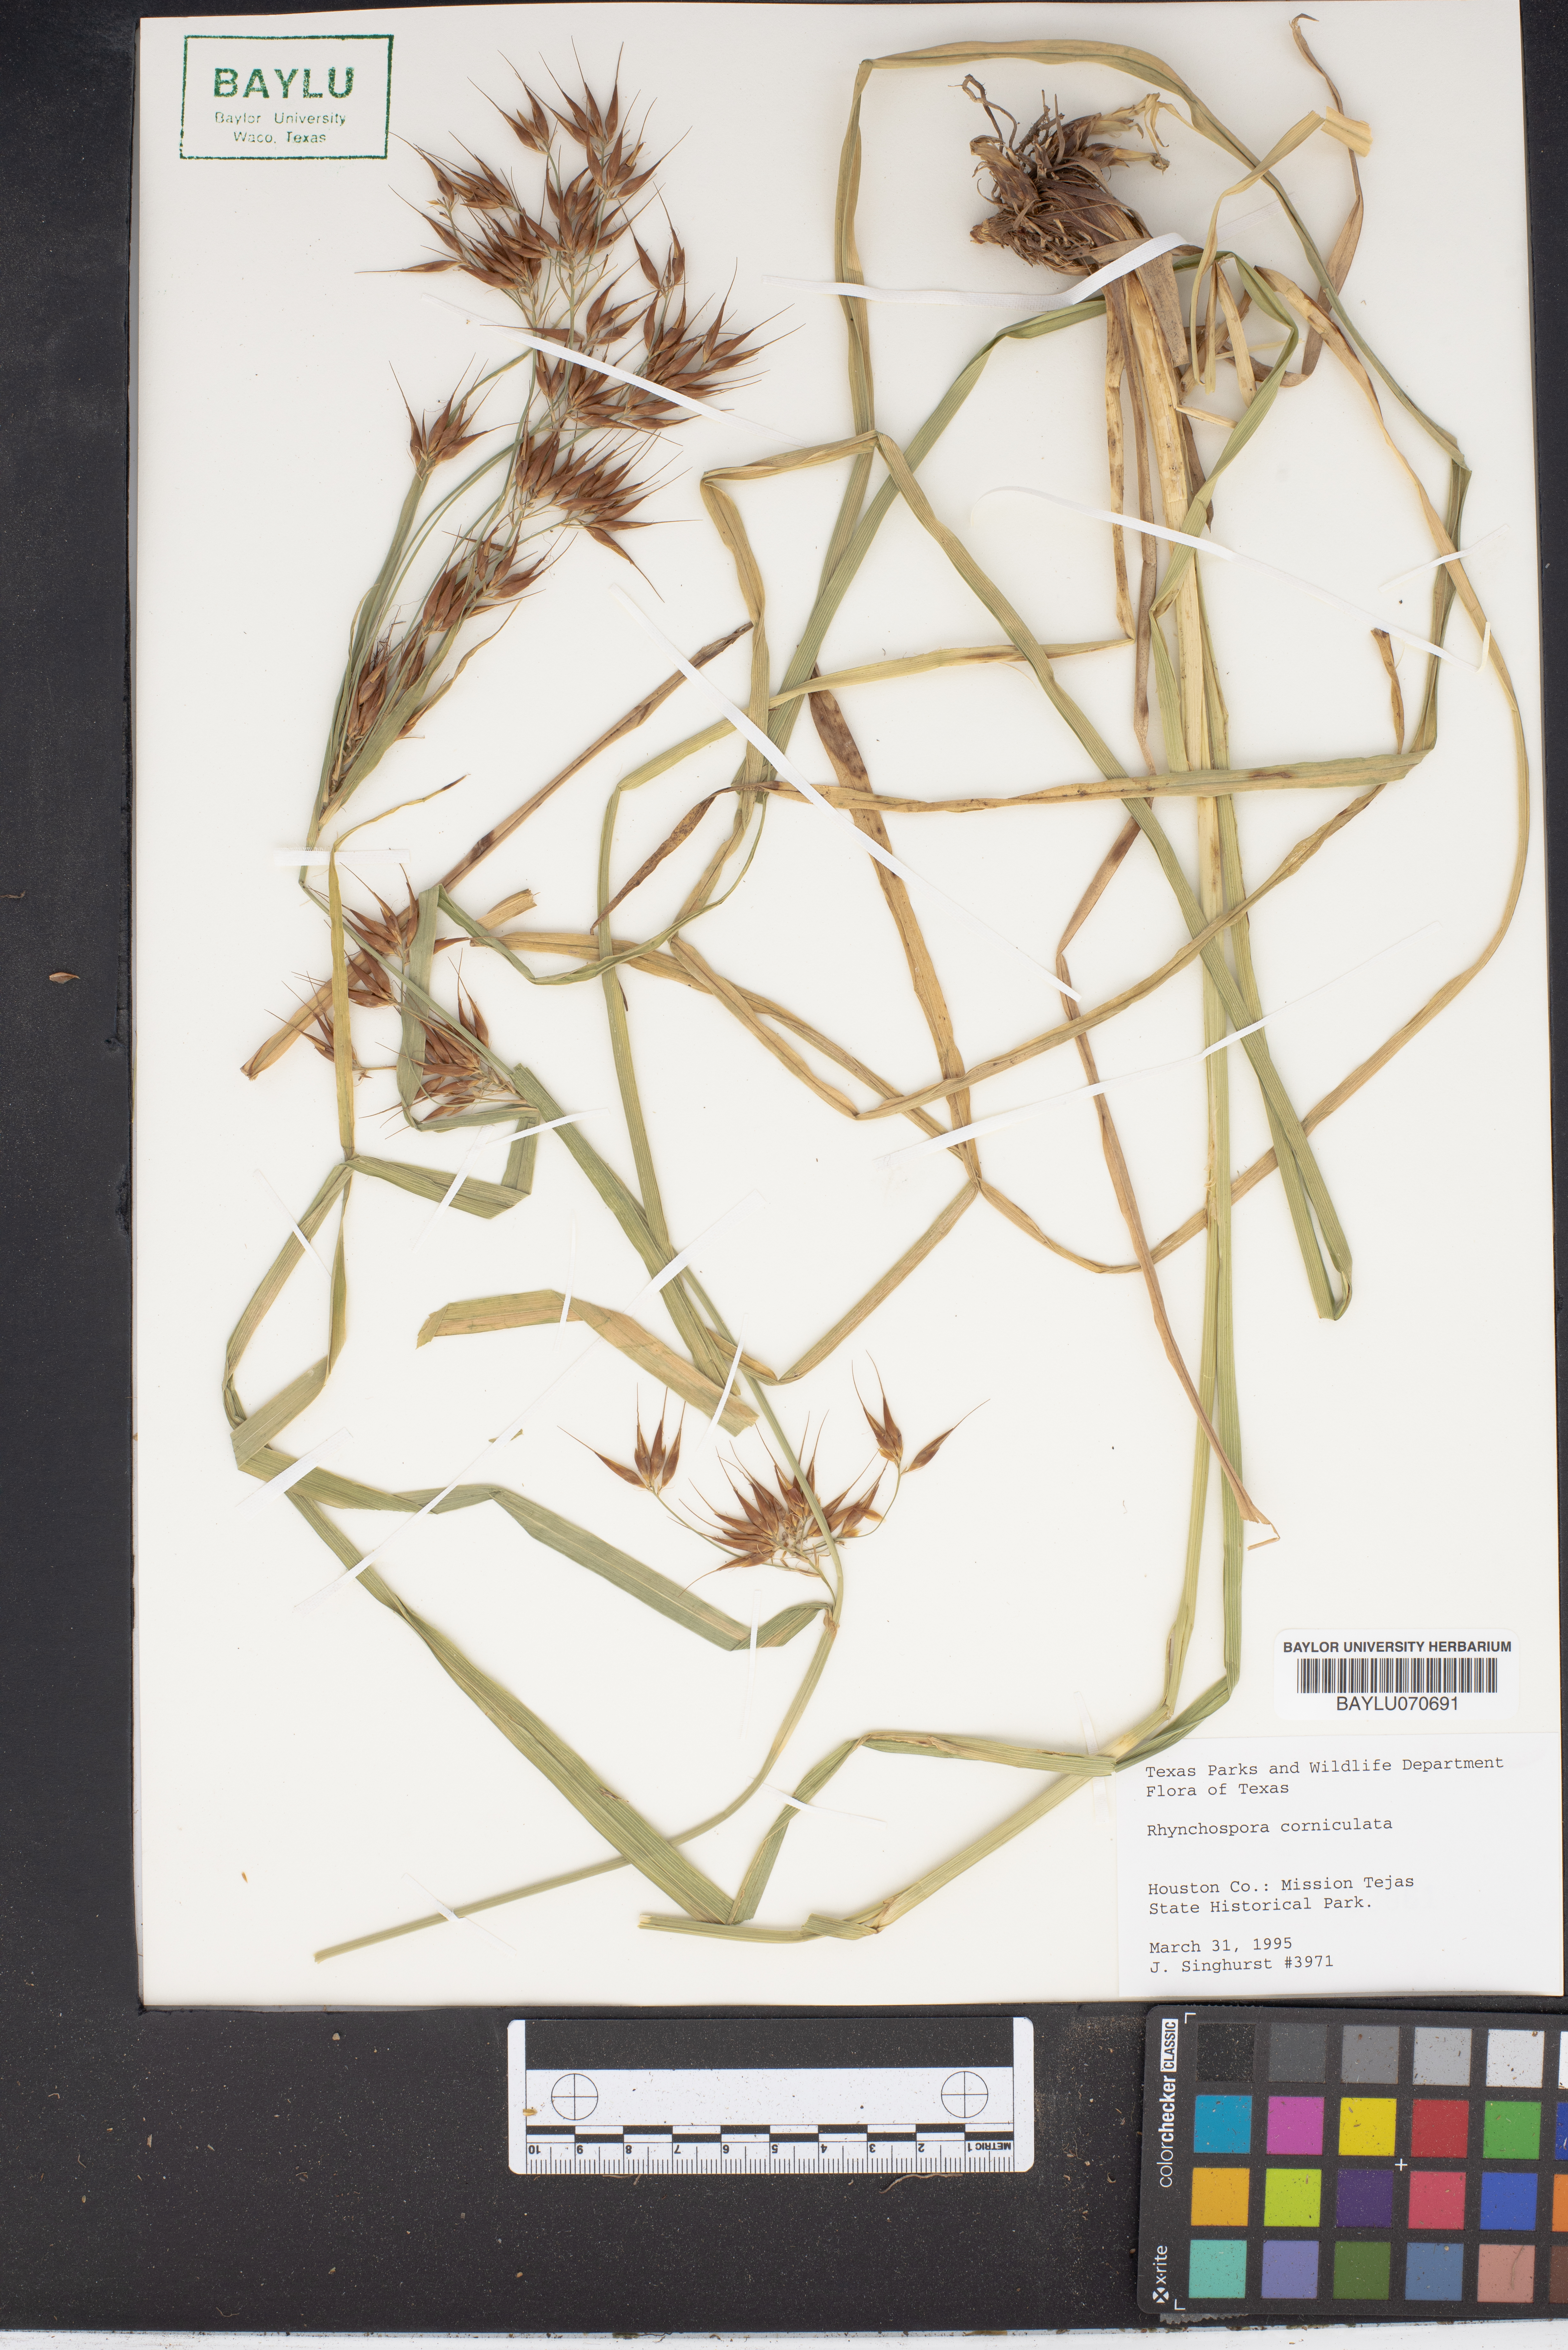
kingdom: Plantae
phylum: Tracheophyta
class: Liliopsida
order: Poales
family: Cyperaceae
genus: Rhynchospora
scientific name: Rhynchospora corniculata
